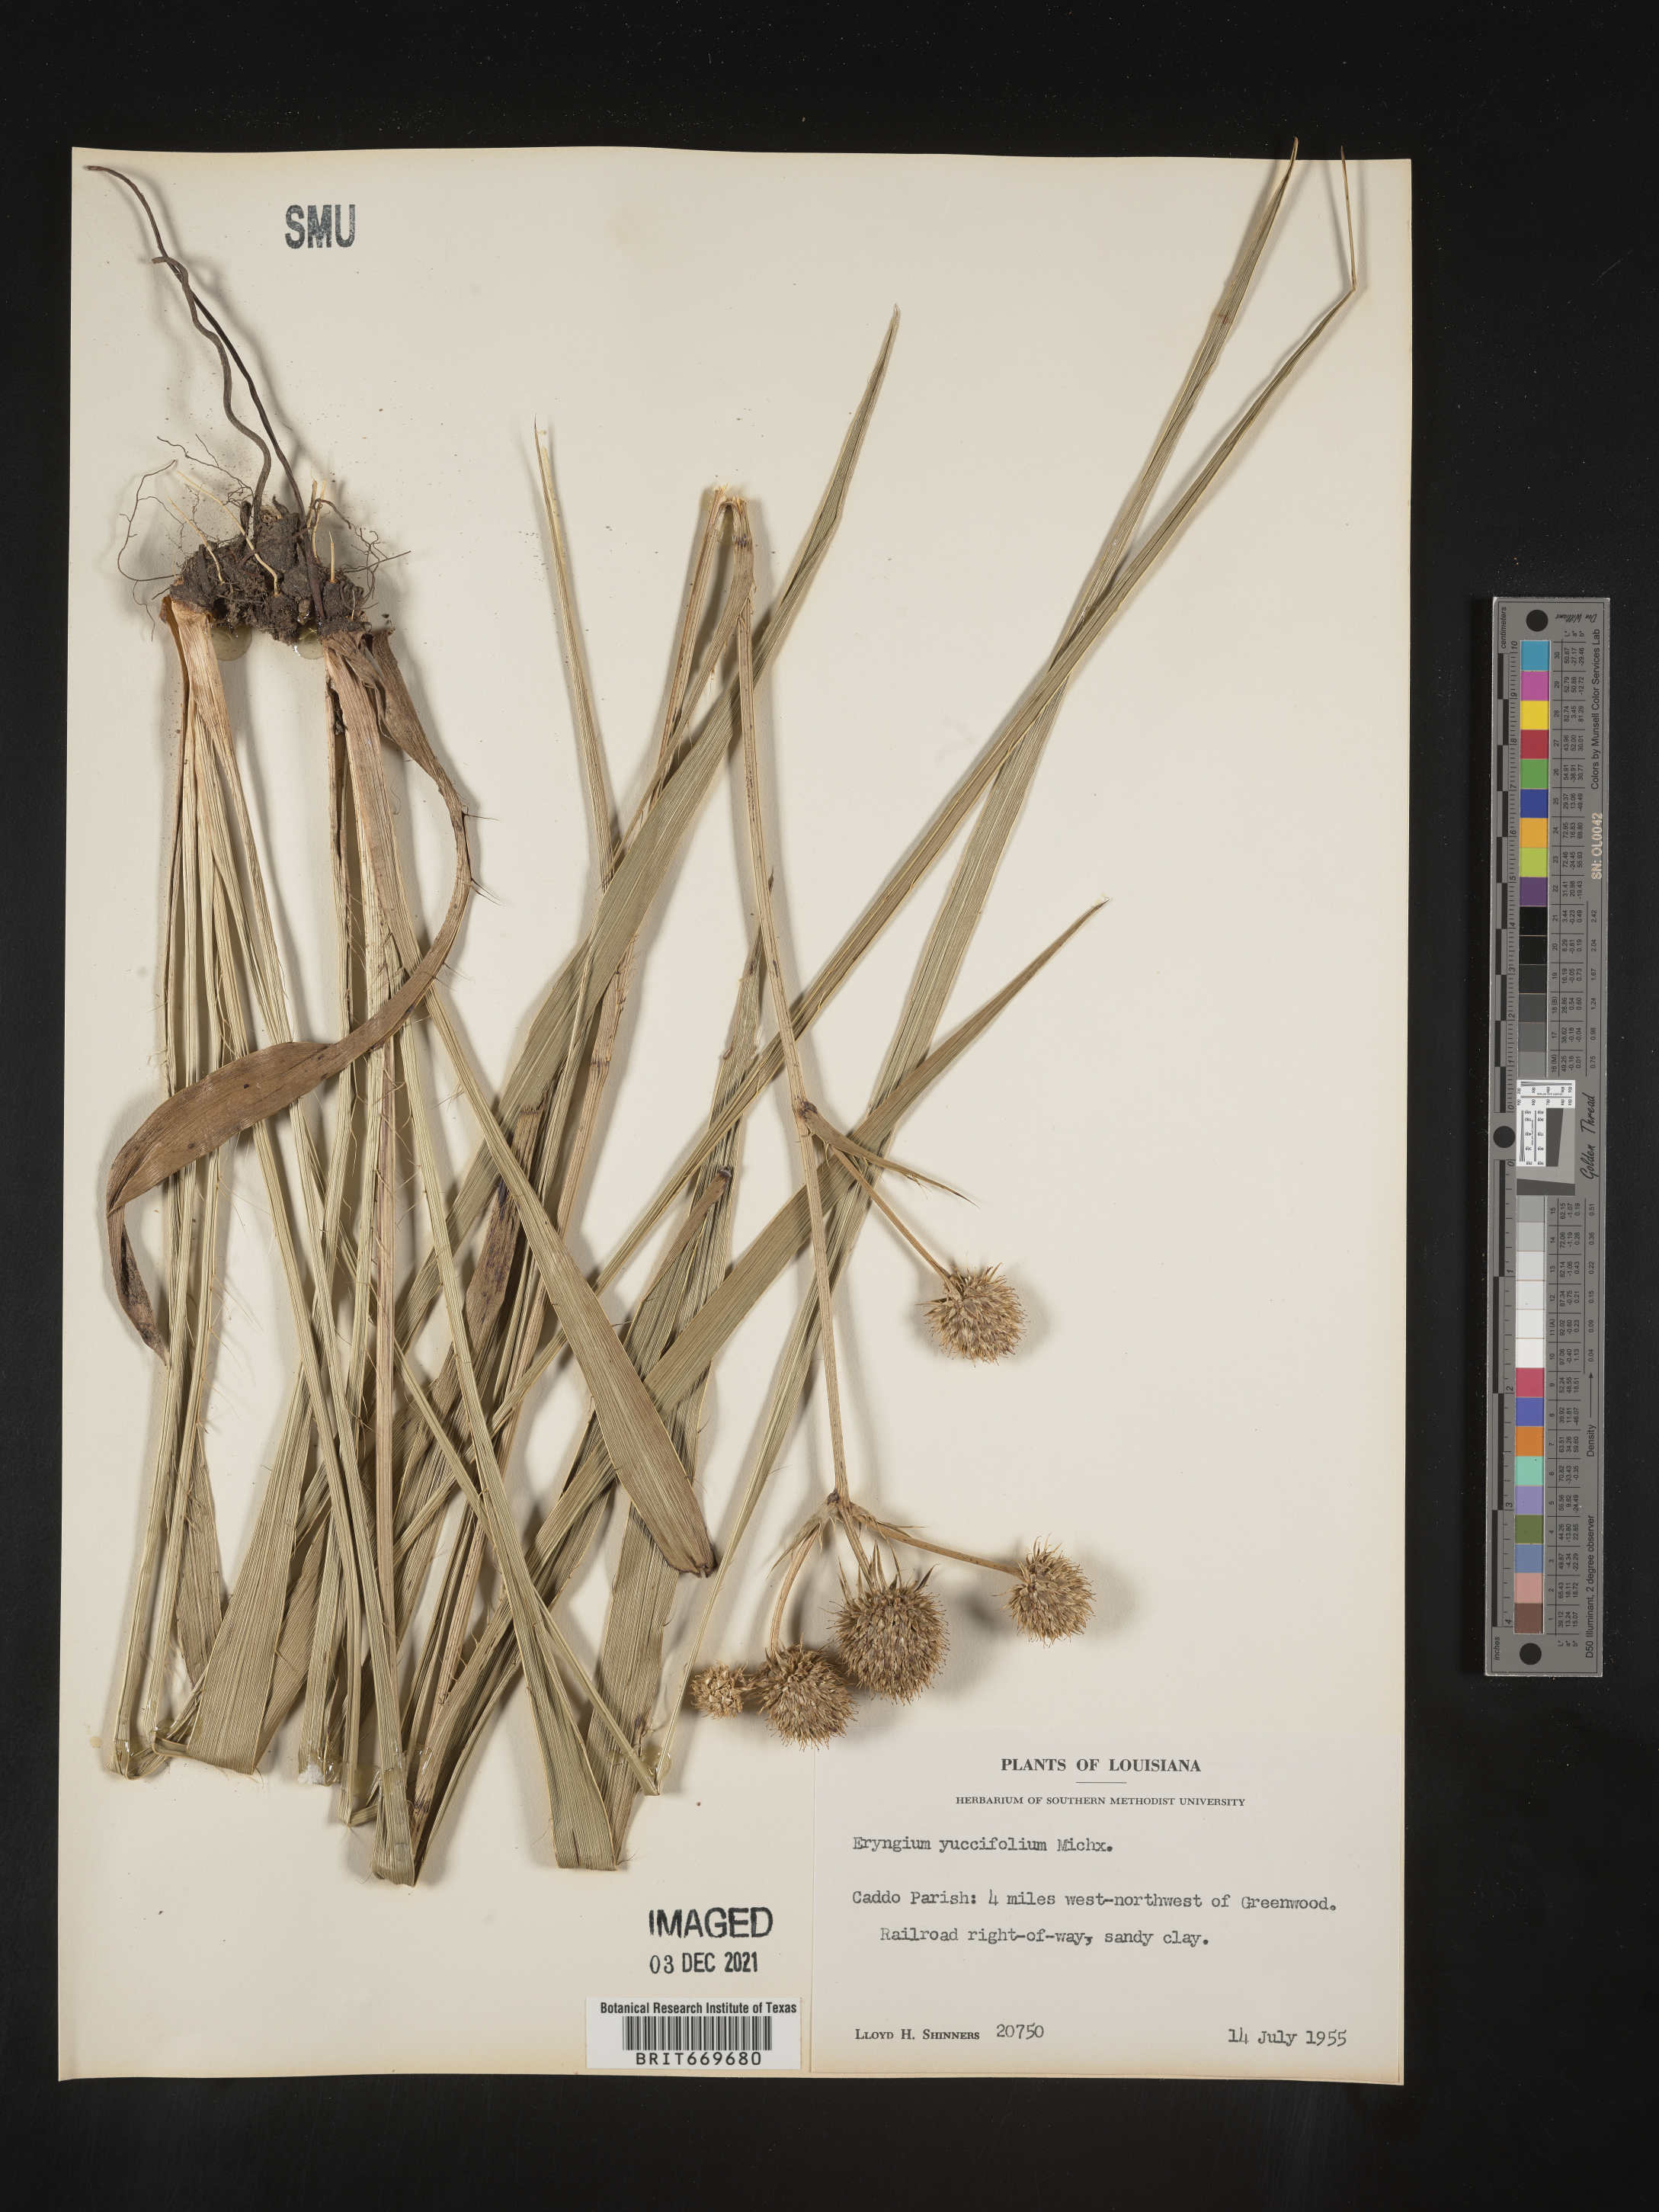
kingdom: Plantae
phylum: Tracheophyta
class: Magnoliopsida
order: Apiales
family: Apiaceae
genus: Eryngium
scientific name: Eryngium yuccifolium
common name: Button eryngo
